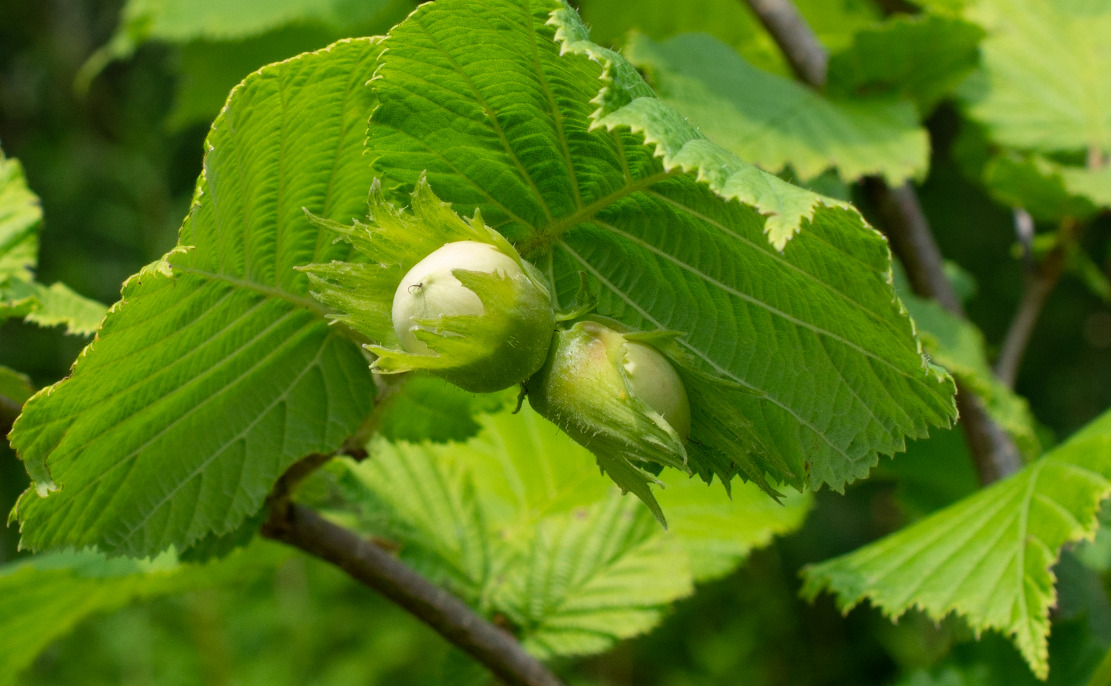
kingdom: Plantae
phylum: Tracheophyta
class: Magnoliopsida
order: Fagales
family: Betulaceae
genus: Corylus
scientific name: Corylus avellana
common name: Hassel
